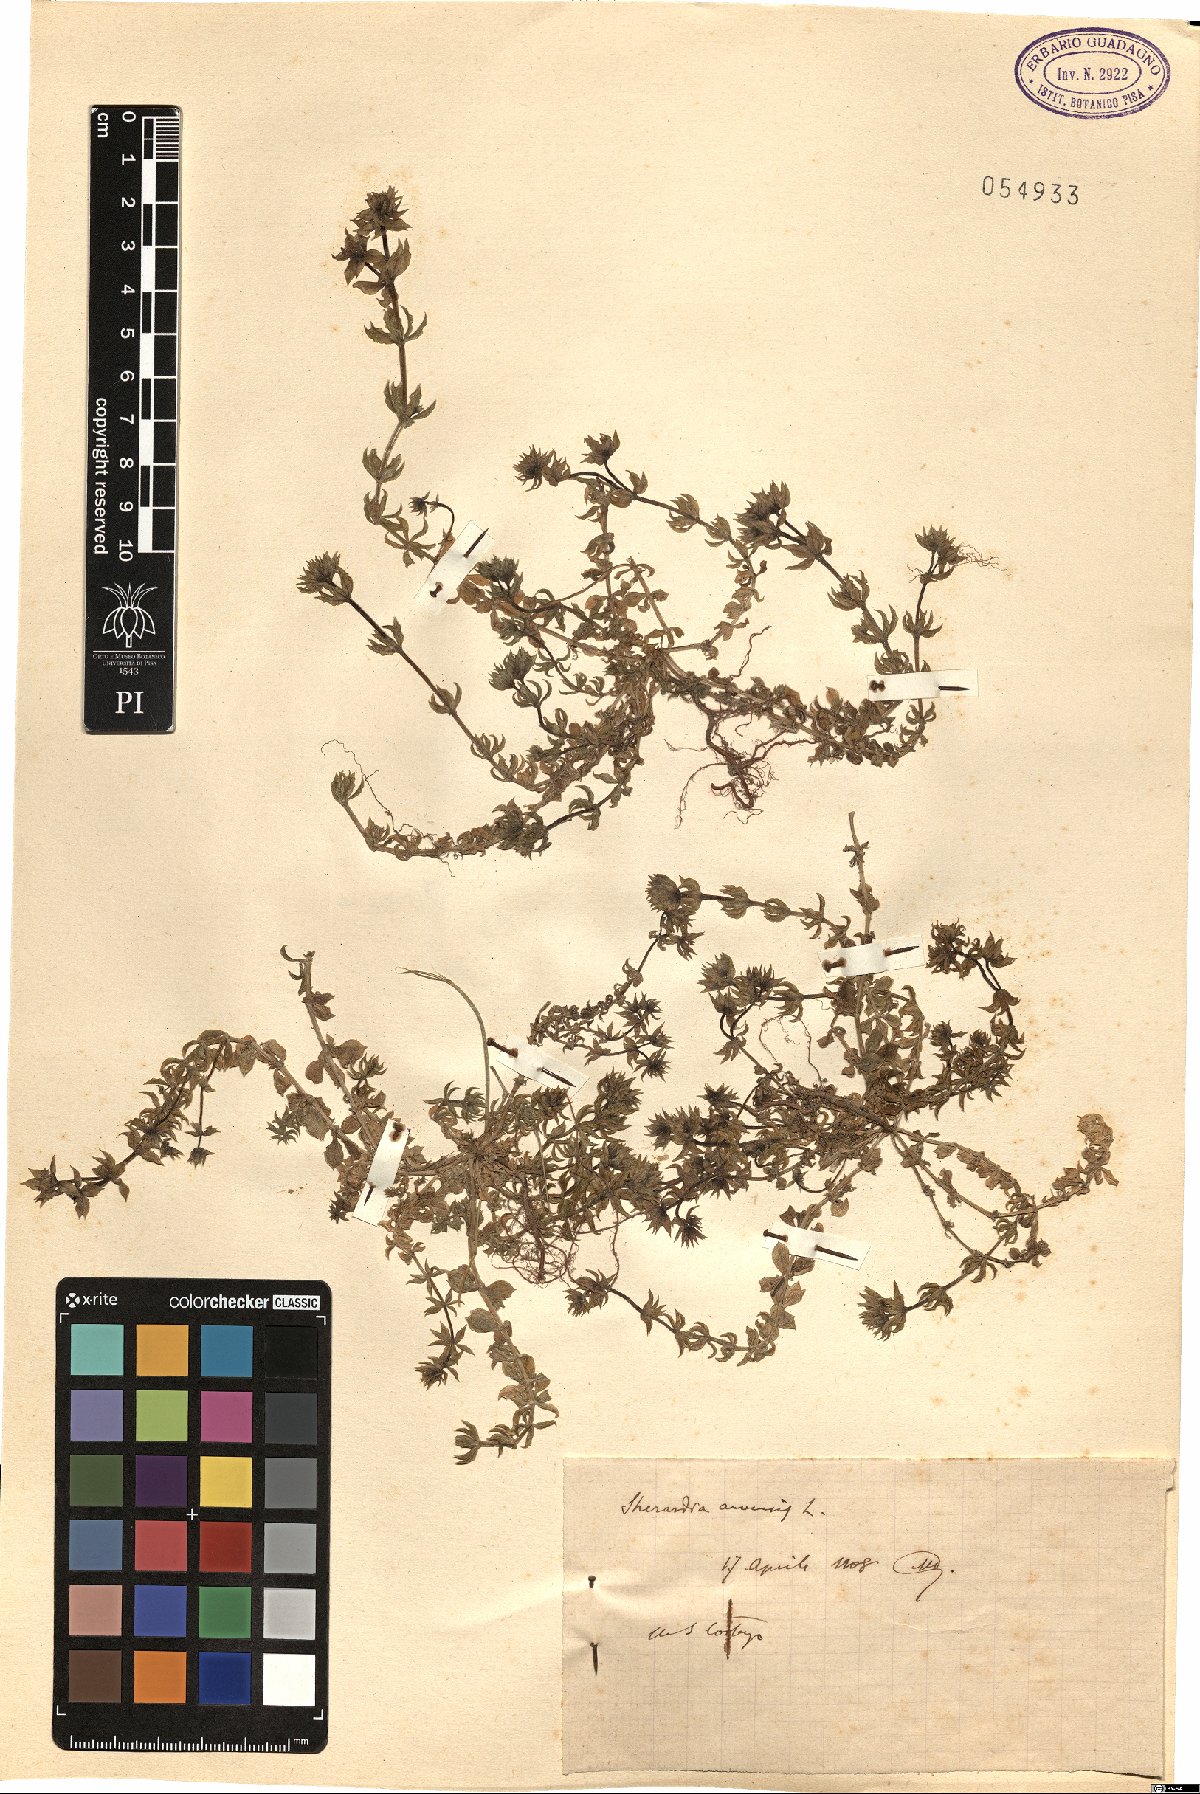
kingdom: Plantae
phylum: Tracheophyta
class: Magnoliopsida
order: Gentianales
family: Rubiaceae
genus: Sherardia
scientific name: Sherardia arvensis
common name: Field madder
